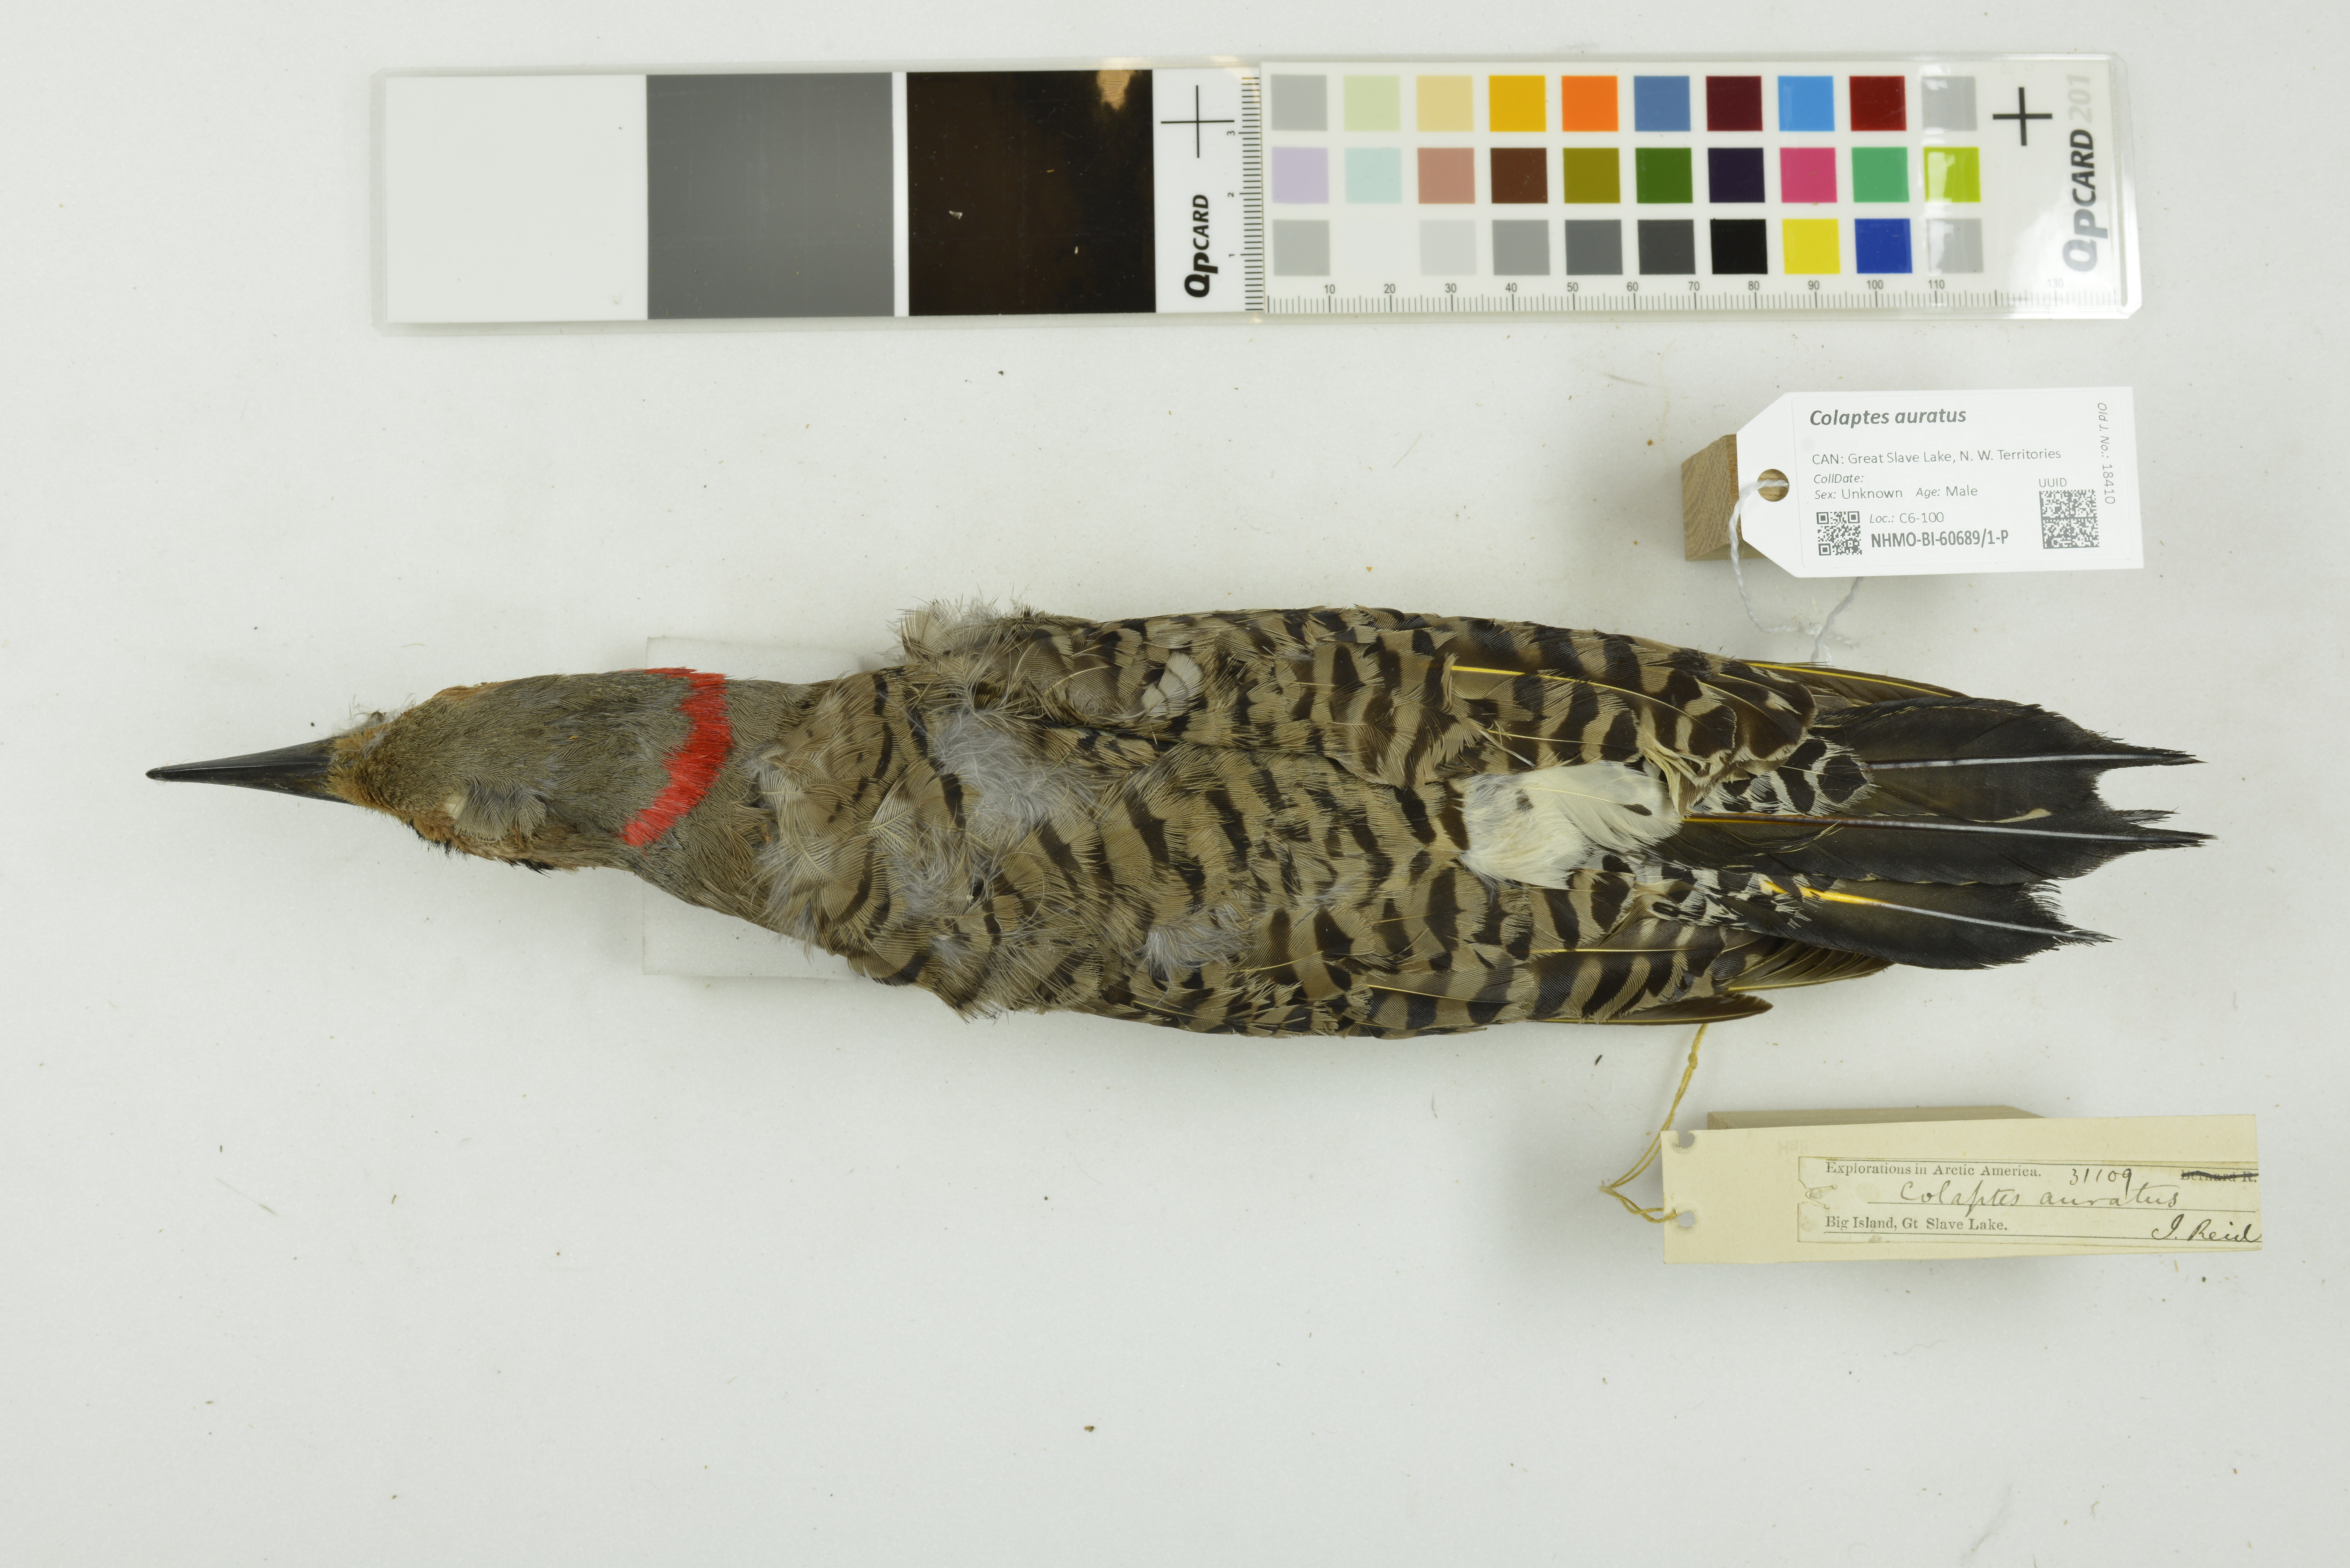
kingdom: Animalia
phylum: Chordata
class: Aves
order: Piciformes
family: Picidae
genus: Colaptes
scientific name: Colaptes auratus
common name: Northern flicker
